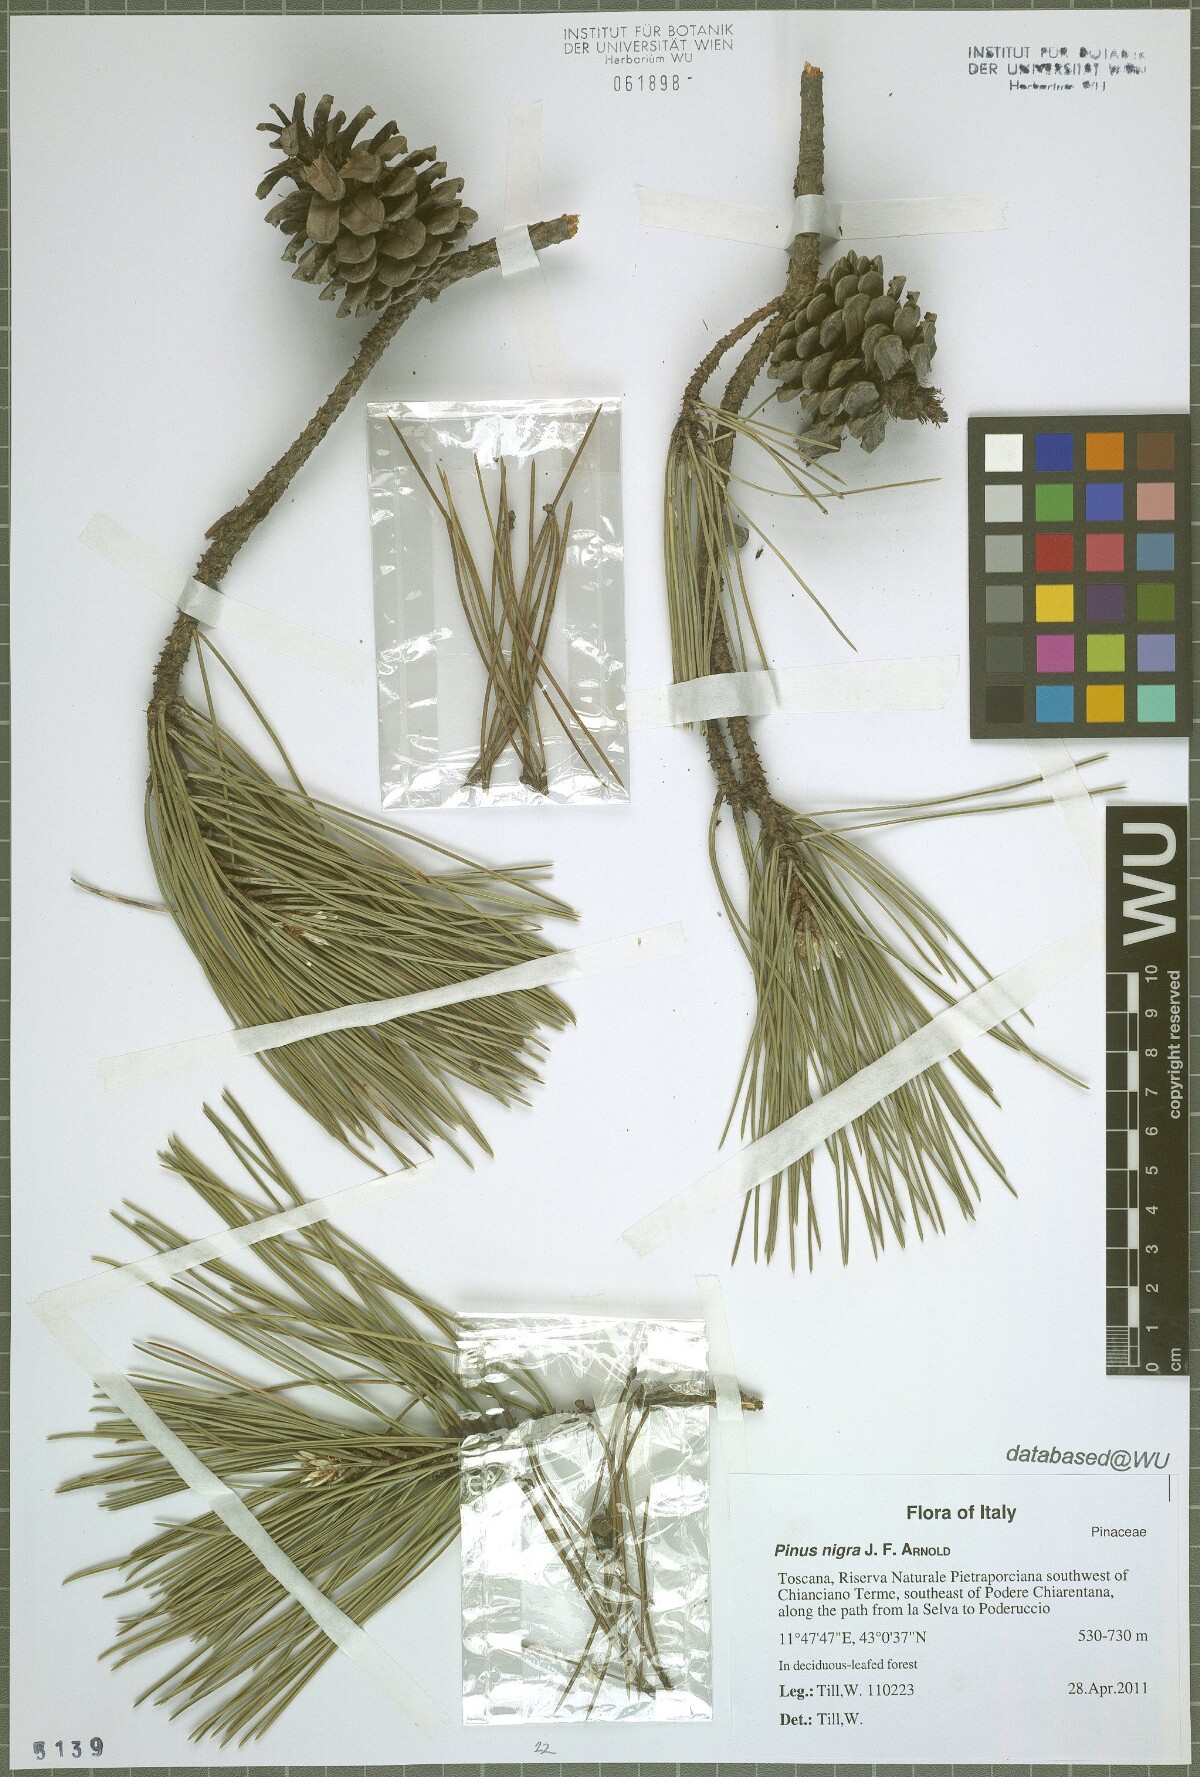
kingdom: Plantae
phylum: Tracheophyta
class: Pinopsida
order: Pinales
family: Pinaceae
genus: Pinus
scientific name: Pinus nigra
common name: Austrian pine
